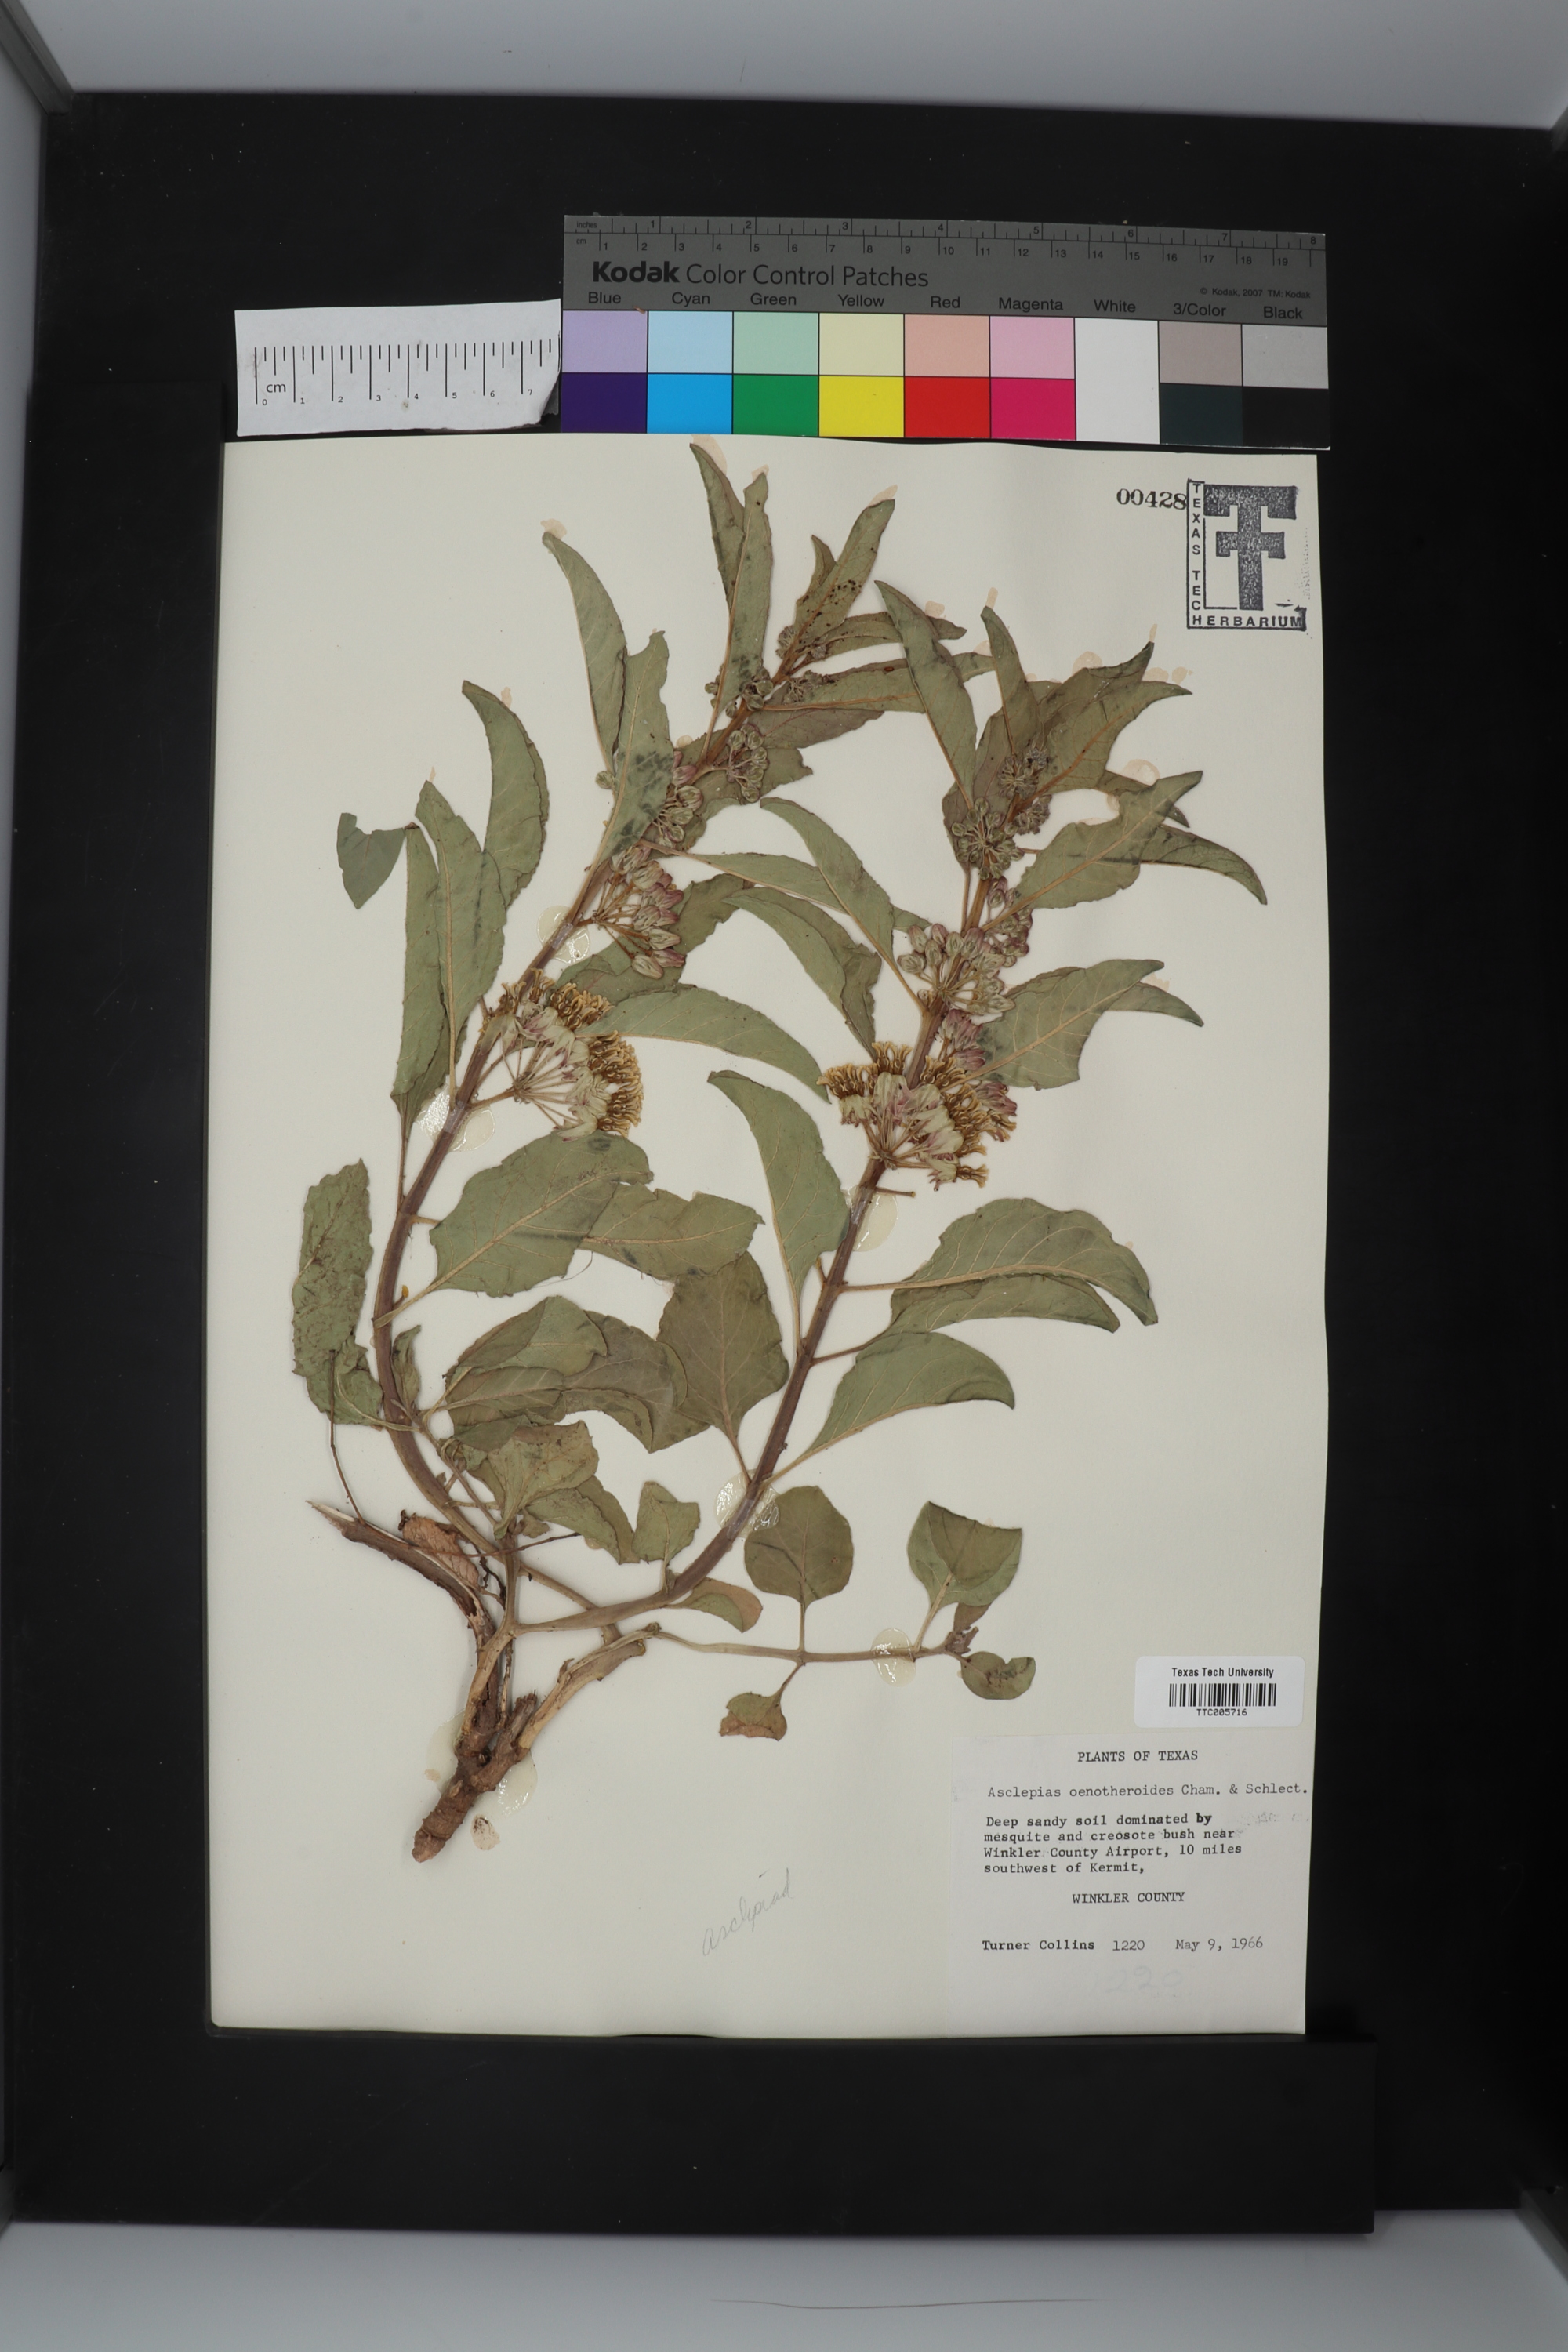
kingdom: Plantae
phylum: Tracheophyta
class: Magnoliopsida
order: Gentianales
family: Apocynaceae
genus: Asclepias
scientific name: Asclepias oenotheroides
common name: Zizotes milkweed
